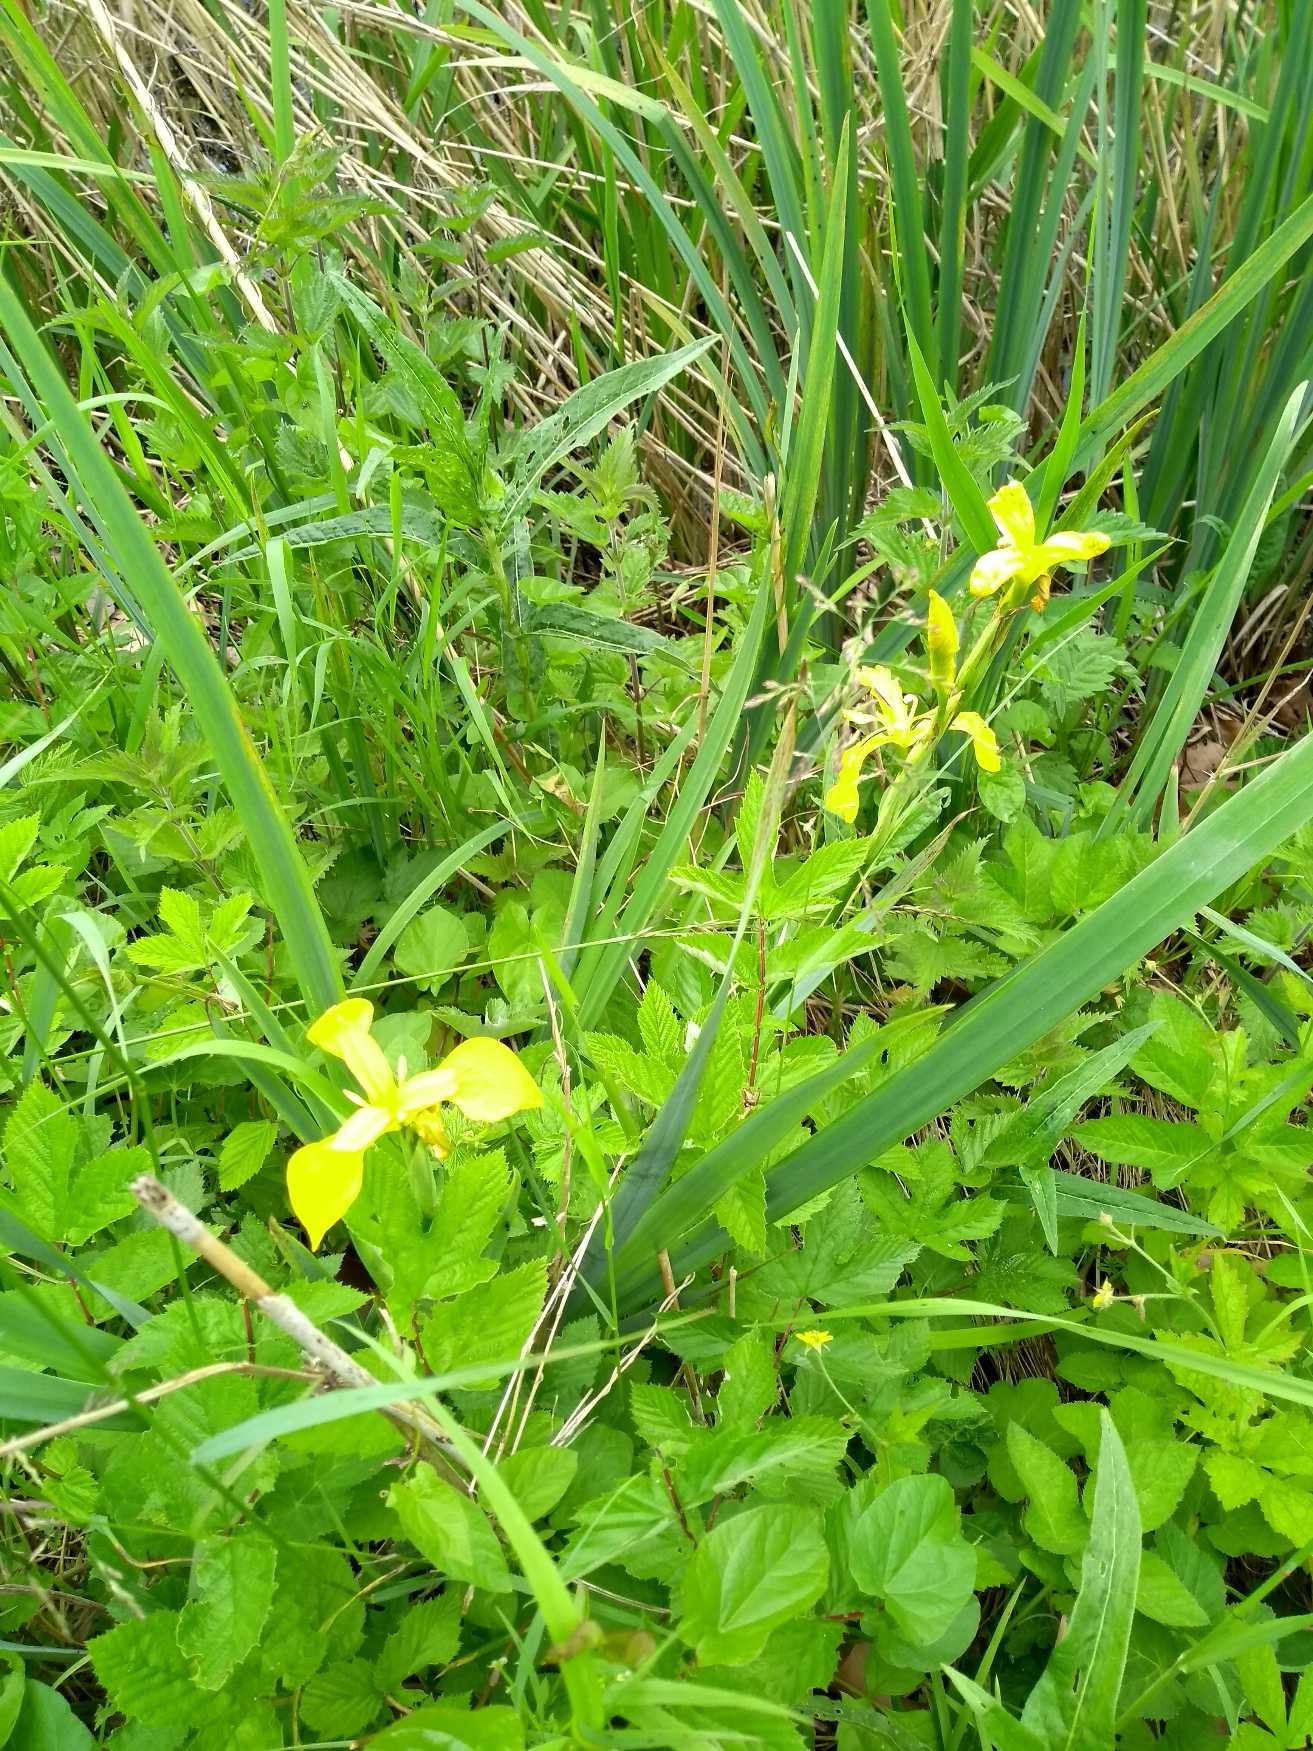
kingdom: Plantae
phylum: Tracheophyta
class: Liliopsida
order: Asparagales
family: Iridaceae
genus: Iris
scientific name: Iris pseudacorus
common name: Gul iris
